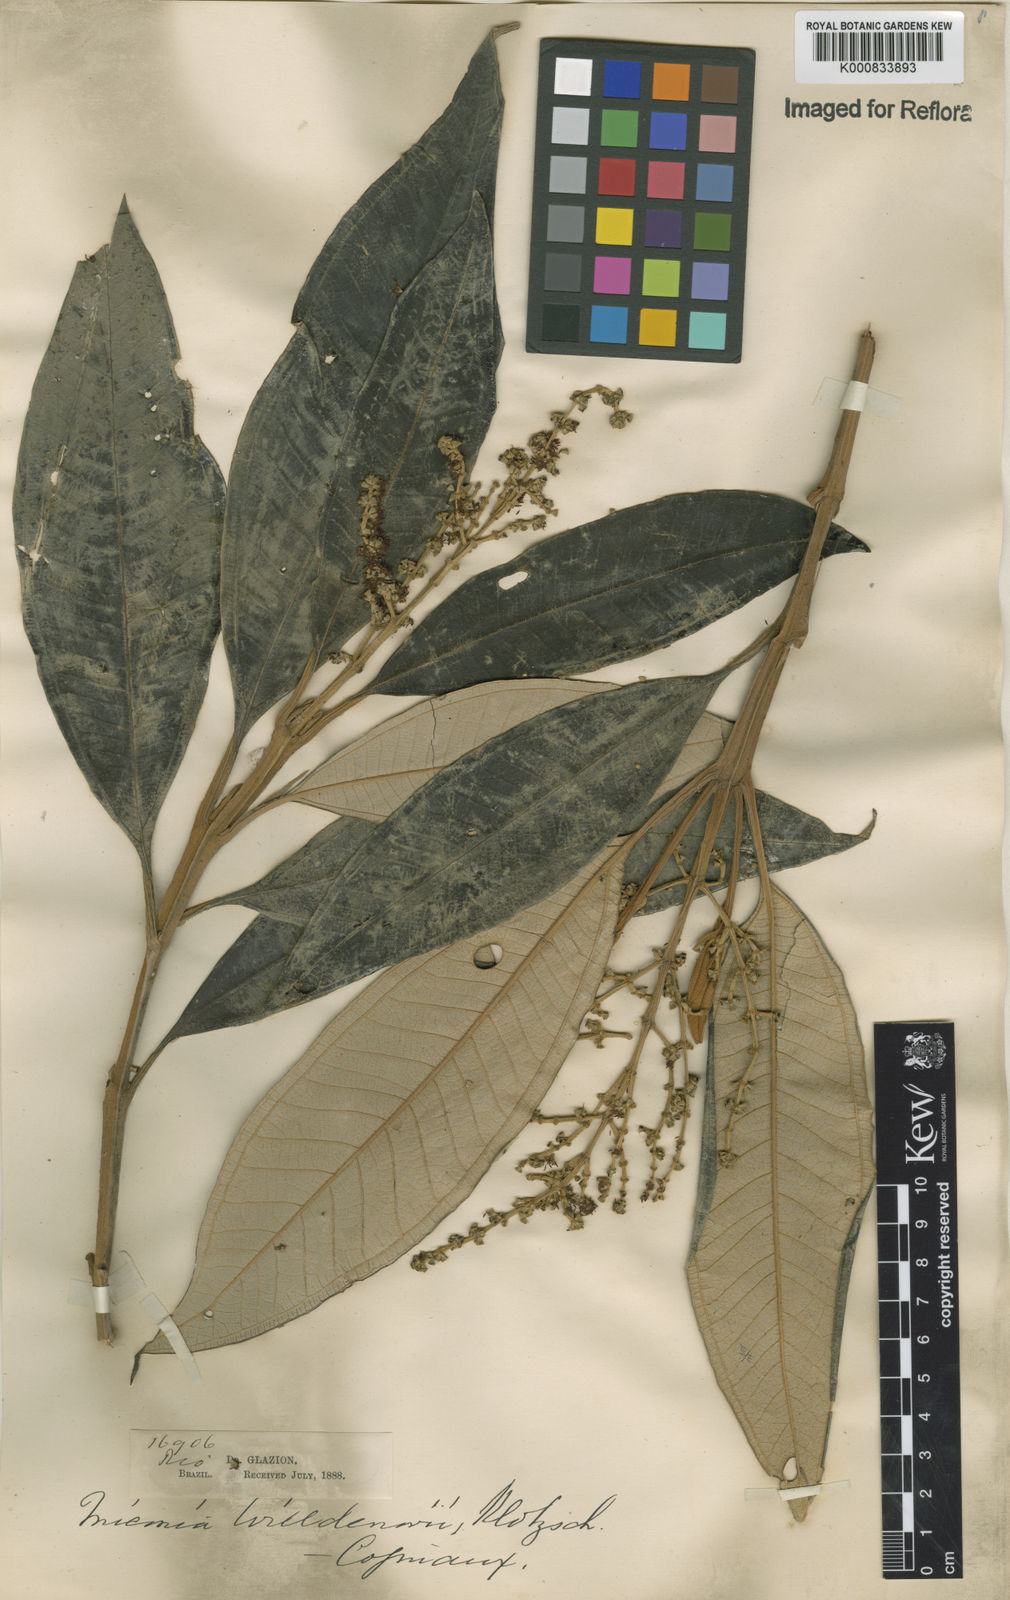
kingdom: Plantae
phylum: Tracheophyta
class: Magnoliopsida
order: Myrtales
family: Melastomataceae
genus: Miconia
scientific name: Miconia willdenowii
